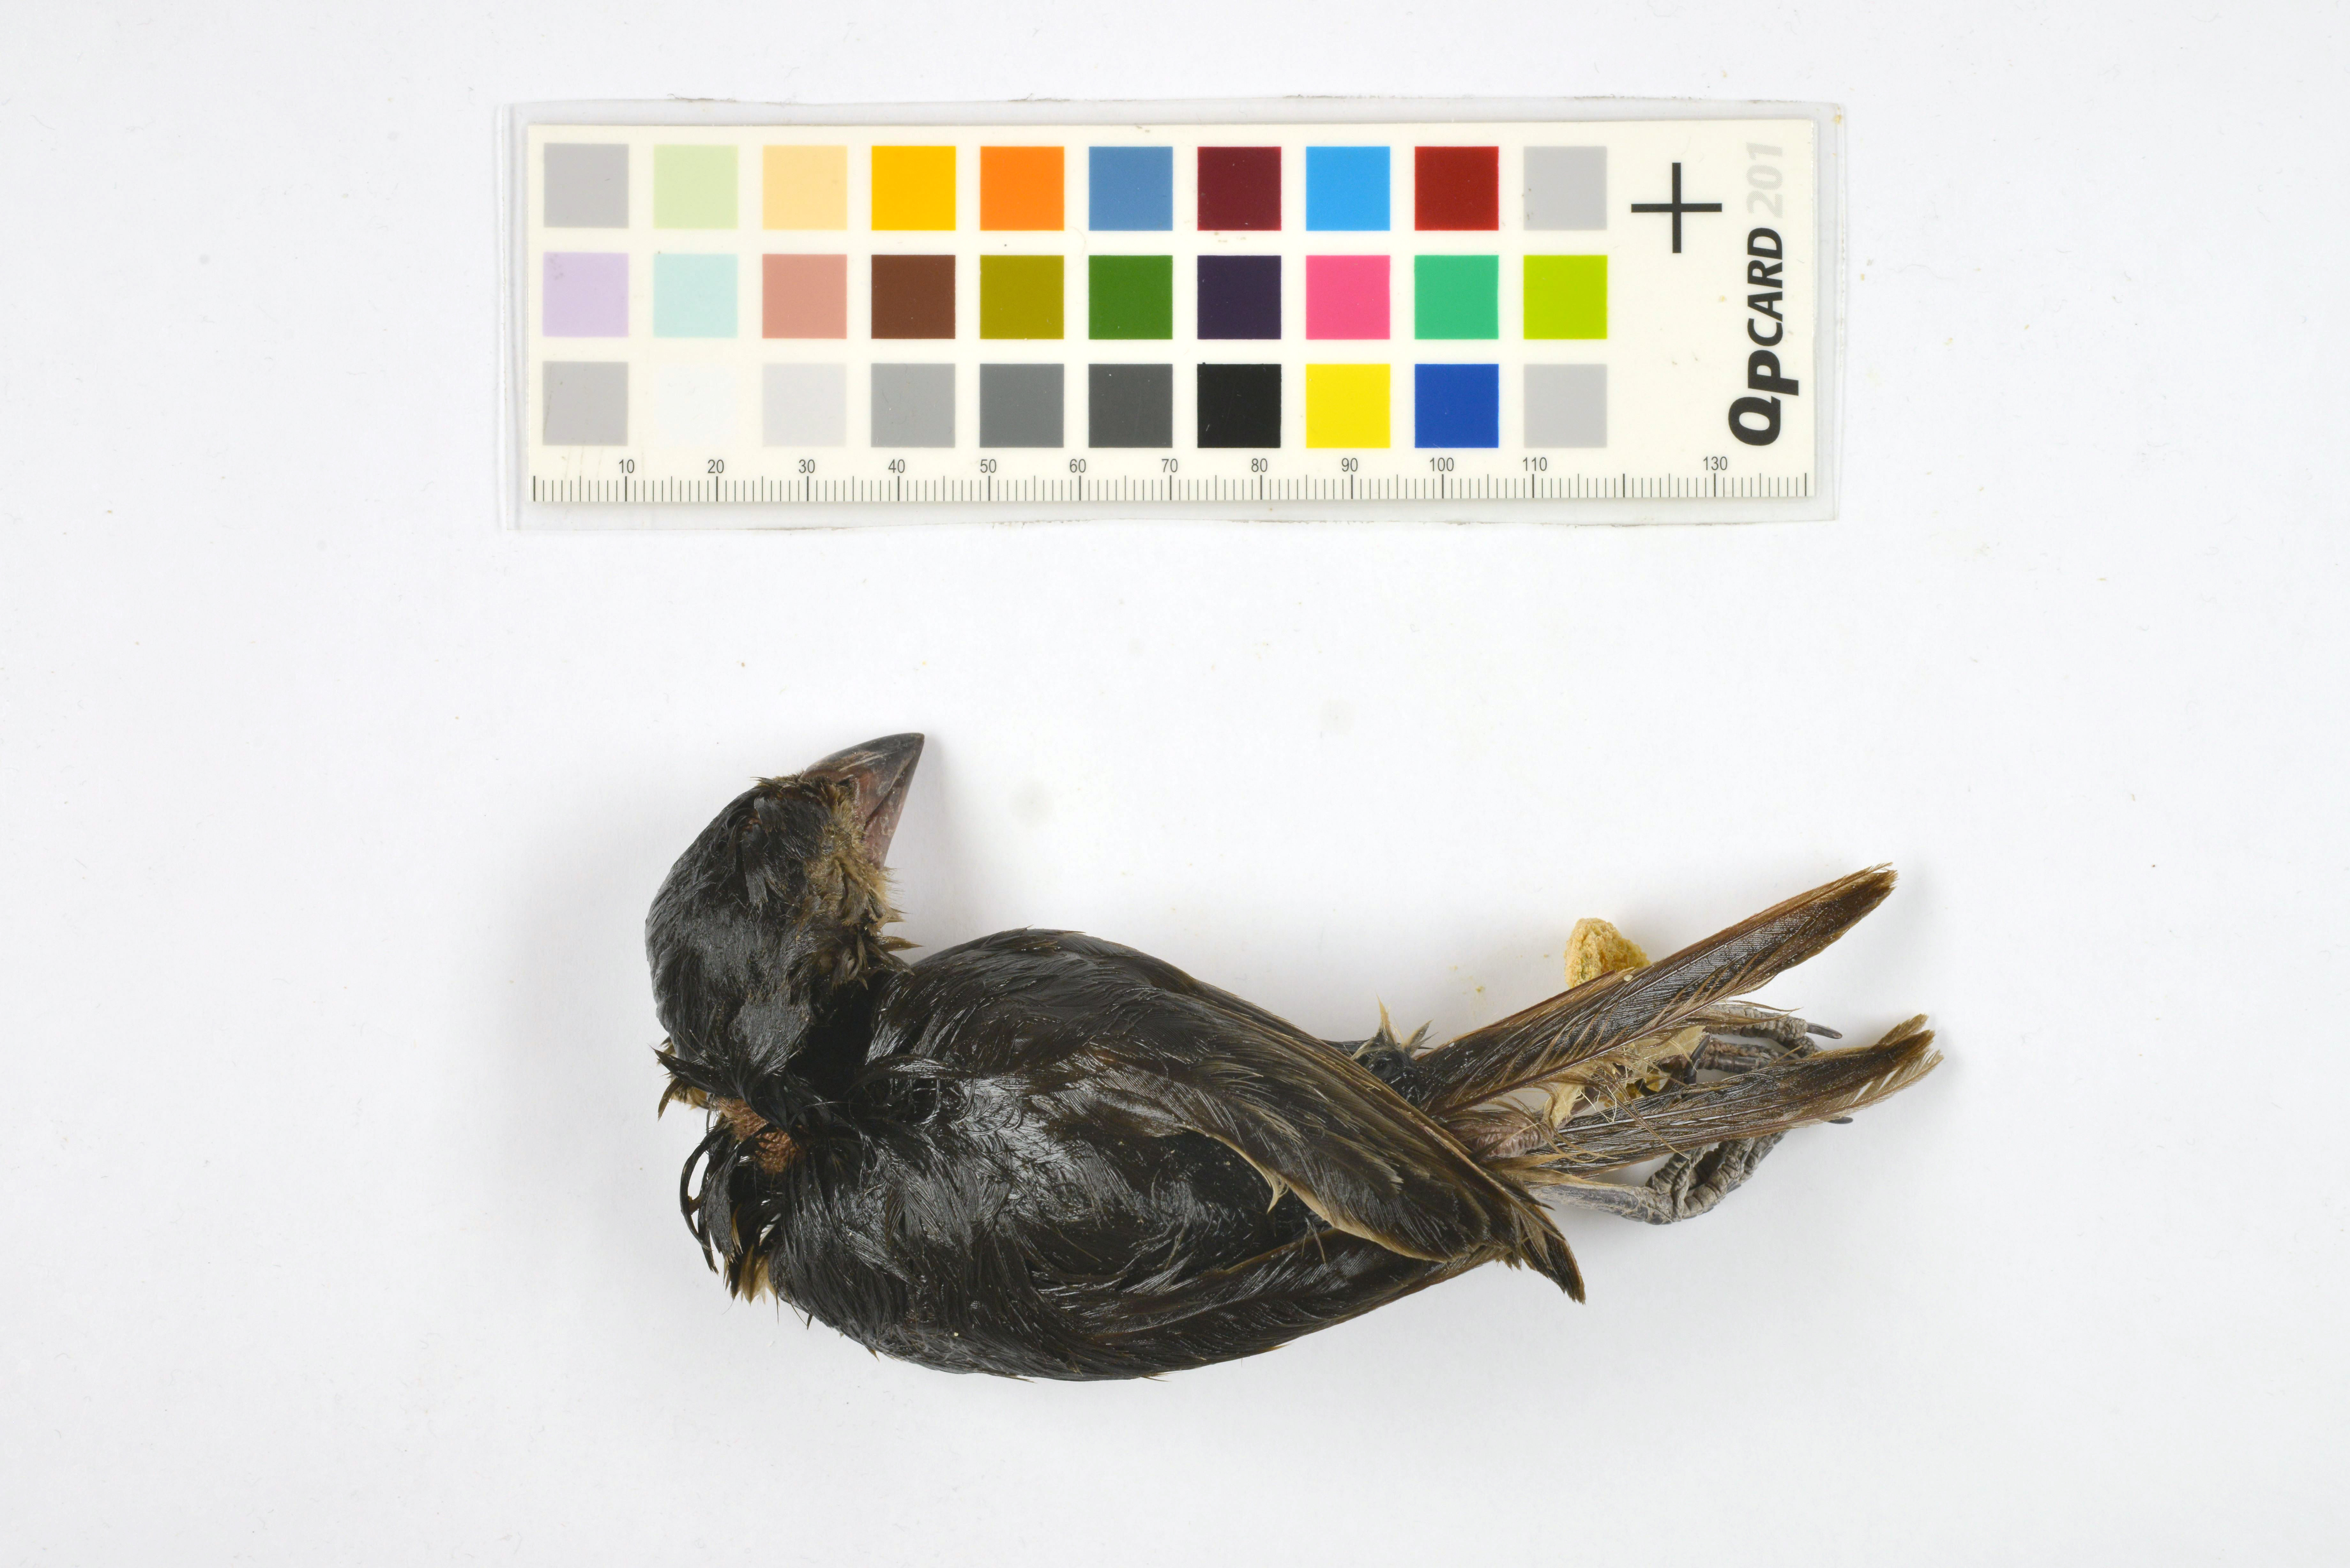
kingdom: Animalia
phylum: Chordata
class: Aves
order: Passeriformes
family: Thraupidae
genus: Nesospiza
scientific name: Nesospiza acunhae
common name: Inaccessible island finch
